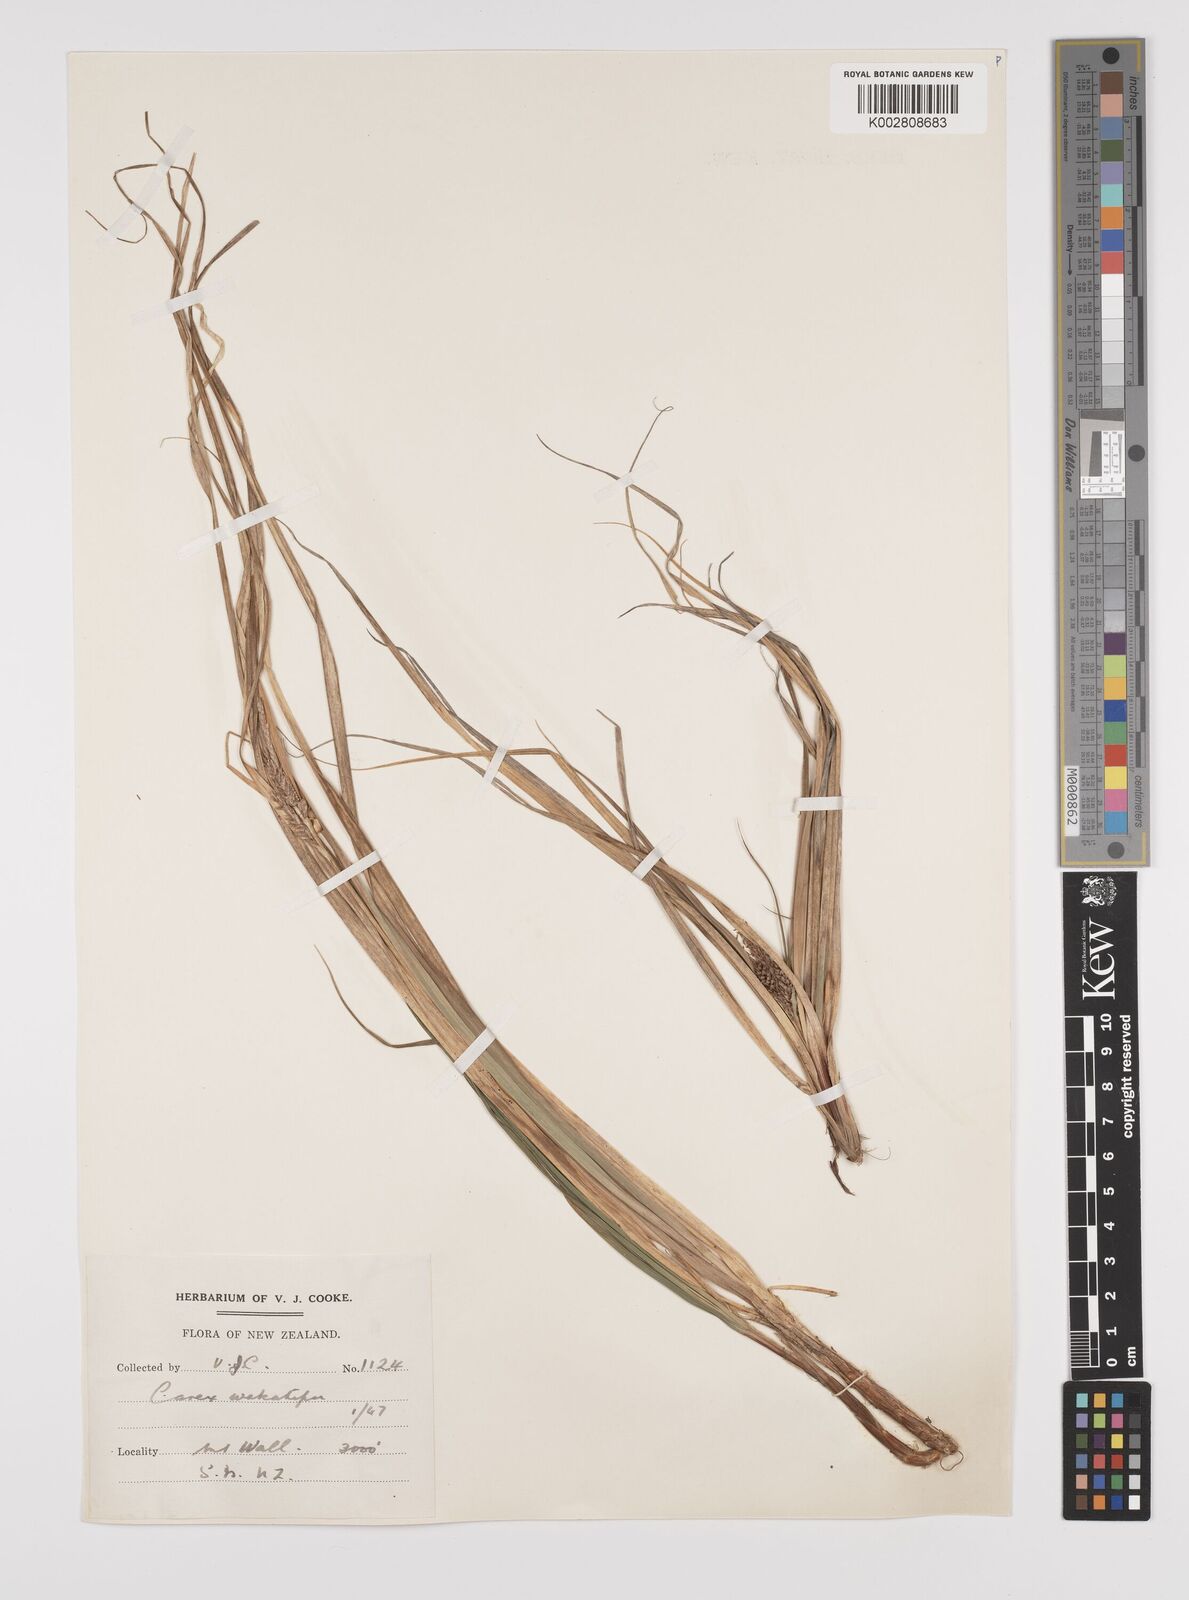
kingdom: Plantae
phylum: Tracheophyta
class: Liliopsida
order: Poales
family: Cyperaceae
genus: Carex
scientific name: Carex wakatipu
